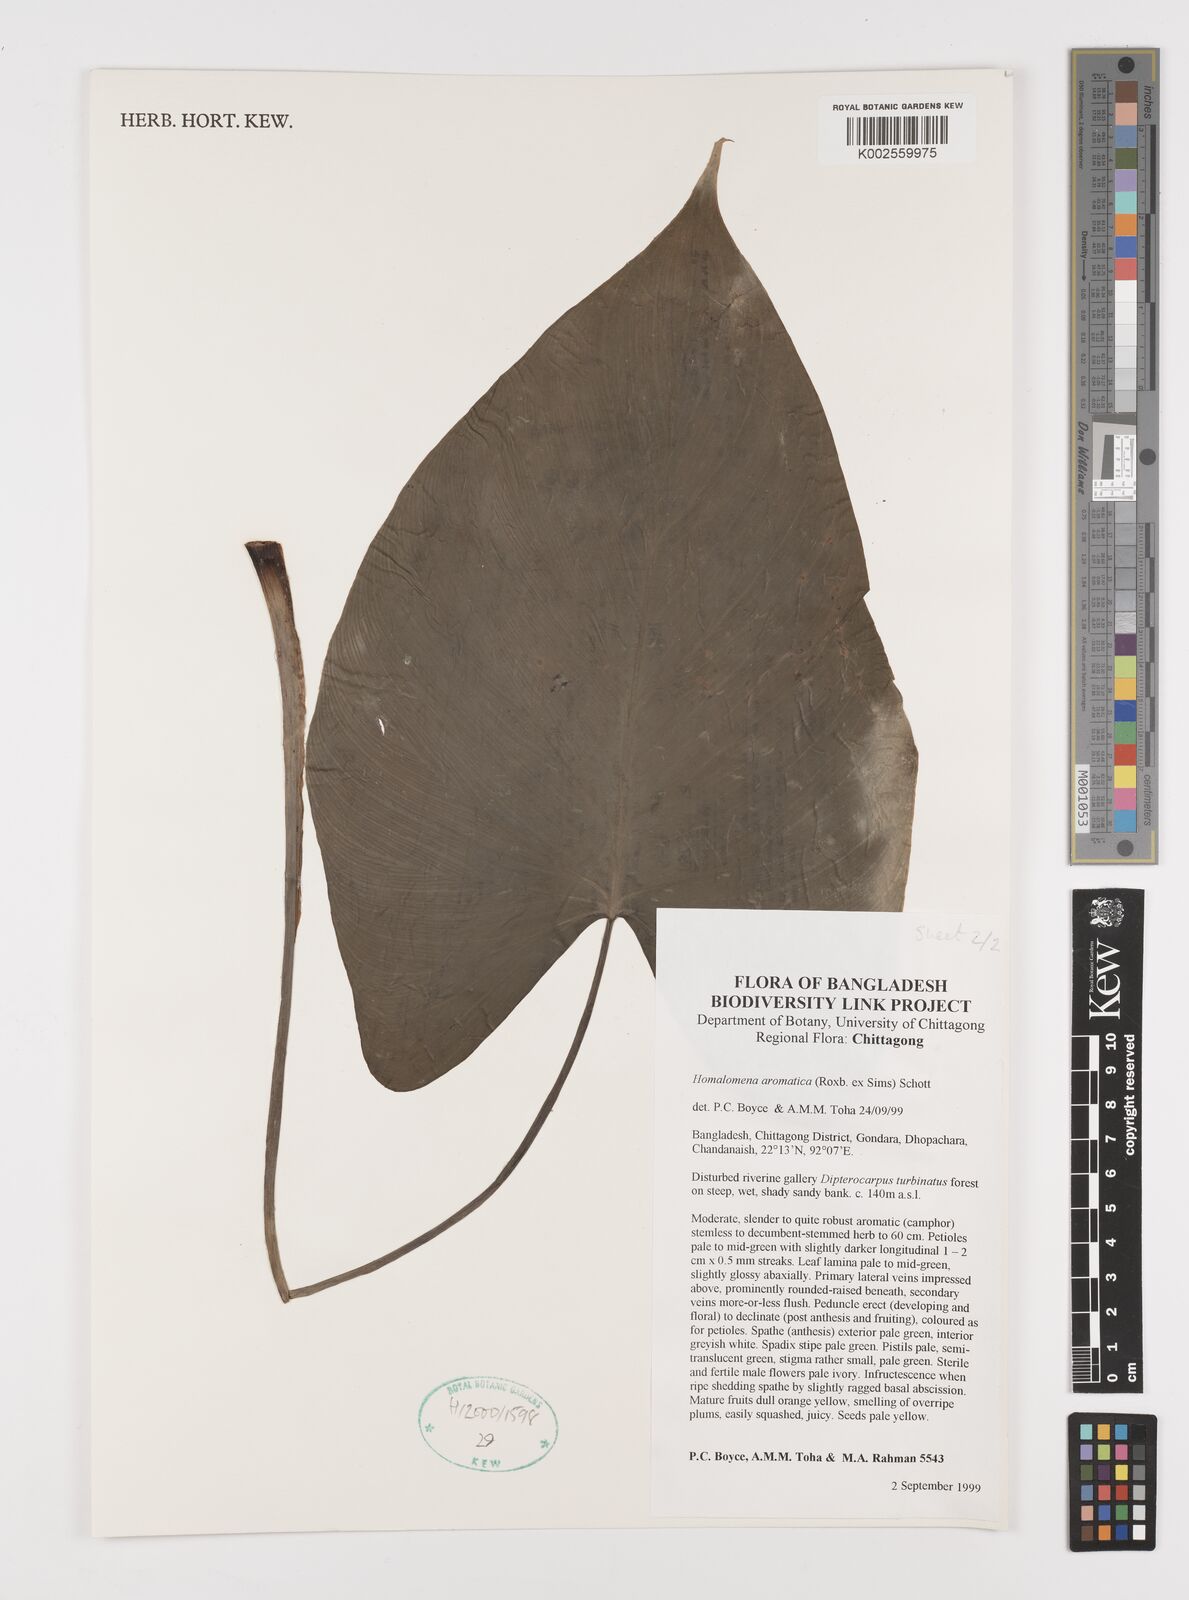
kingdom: Plantae
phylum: Tracheophyta
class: Liliopsida
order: Alismatales
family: Araceae
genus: Homalomena
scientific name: Homalomena aromatica
